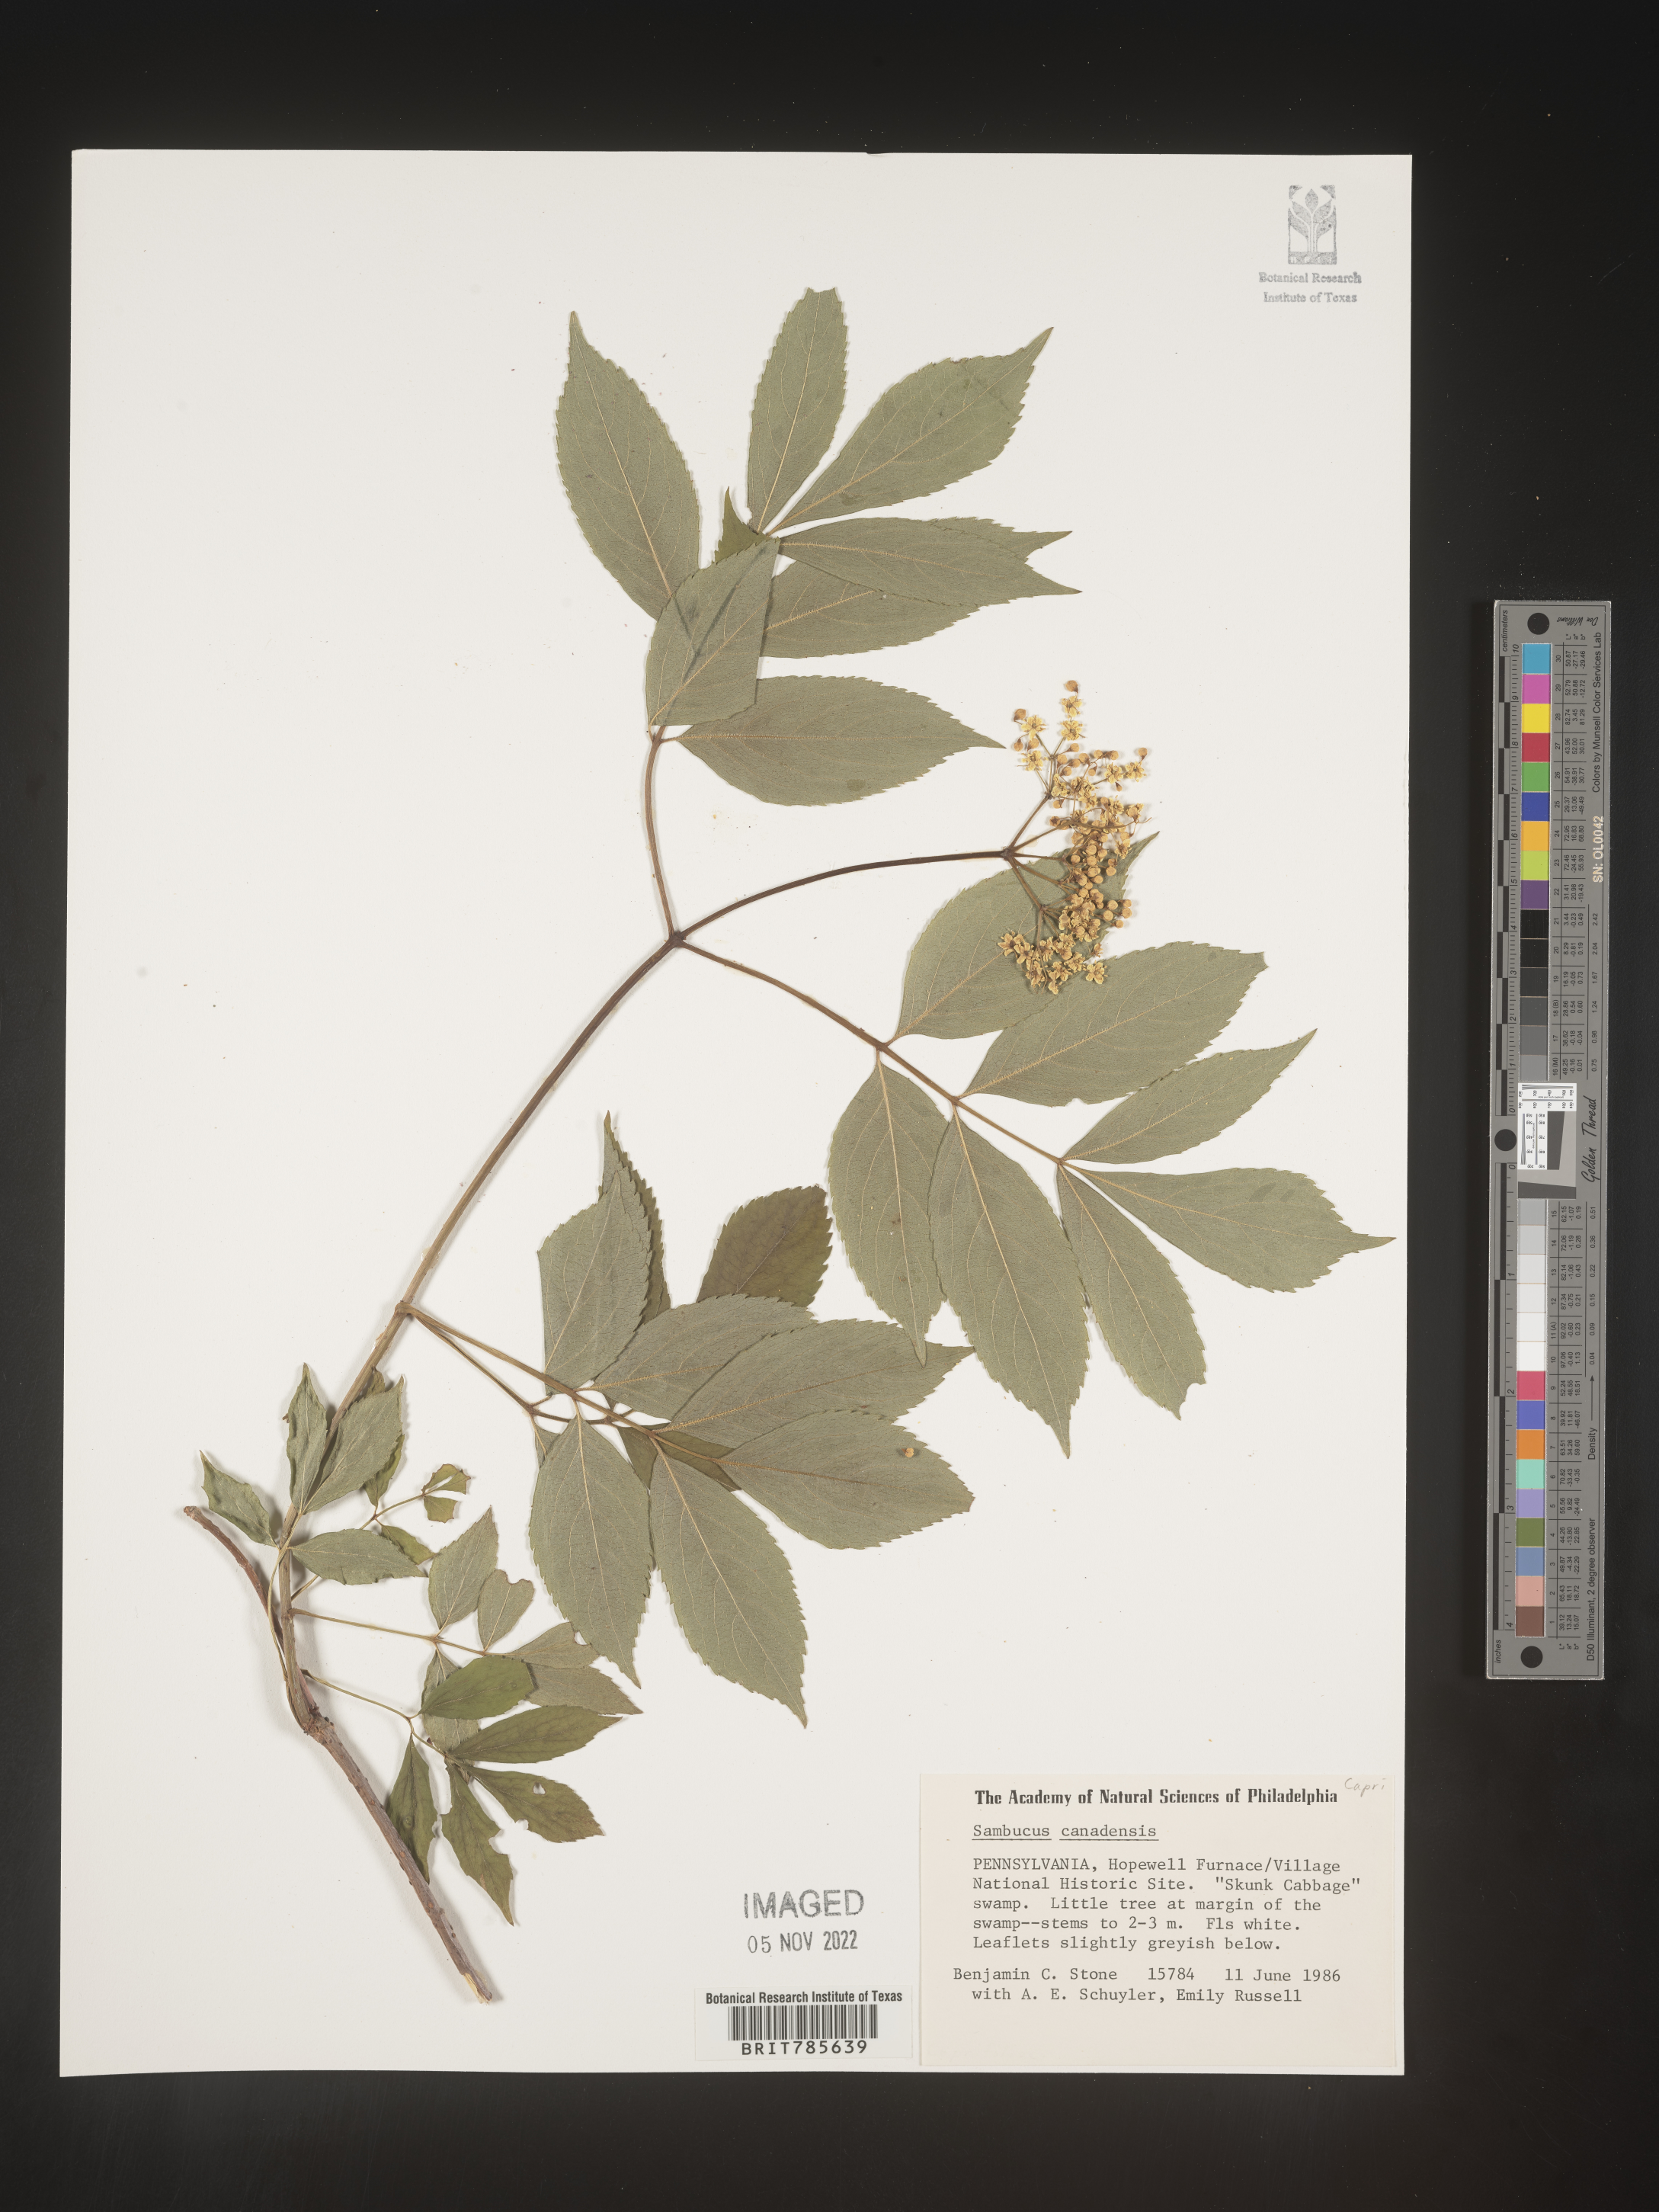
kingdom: Plantae
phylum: Tracheophyta
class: Magnoliopsida
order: Dipsacales
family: Viburnaceae
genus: Sambucus
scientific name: Sambucus canadensis
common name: American elder
